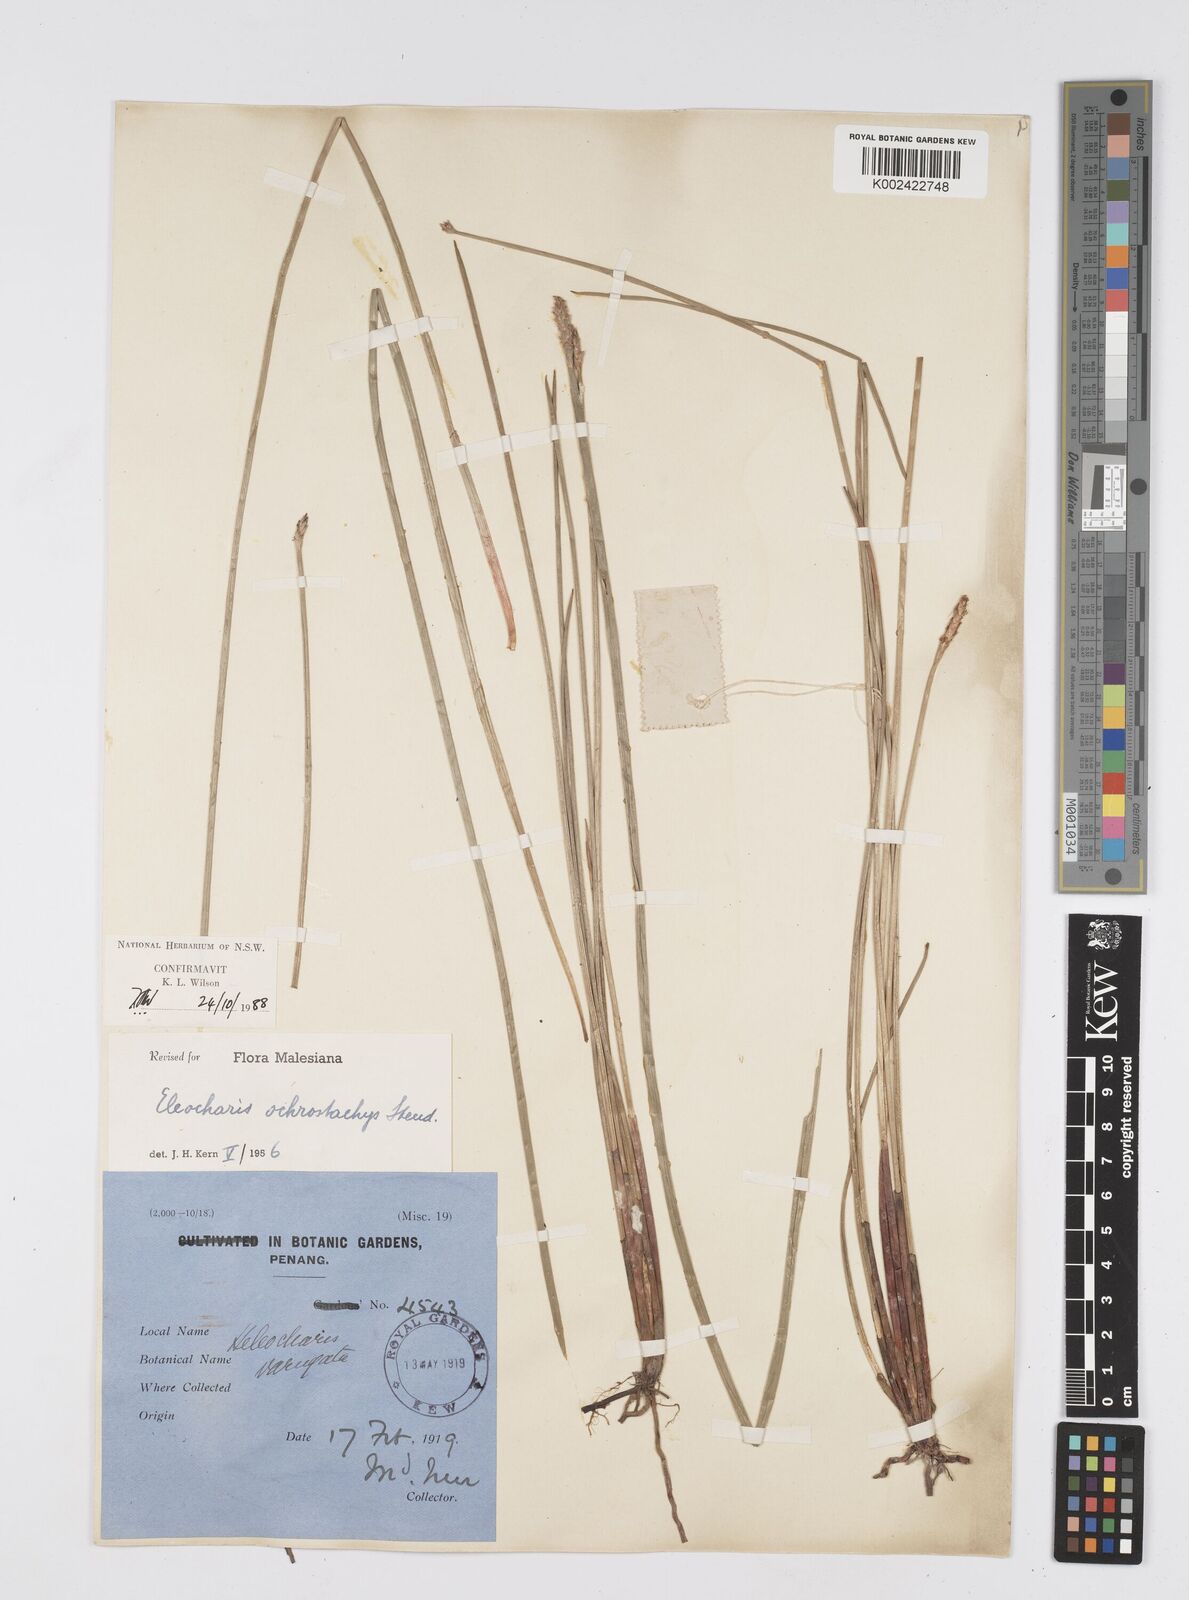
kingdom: Plantae
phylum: Tracheophyta
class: Liliopsida
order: Poales
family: Cyperaceae
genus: Eleocharis
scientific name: Eleocharis ochrostachys
